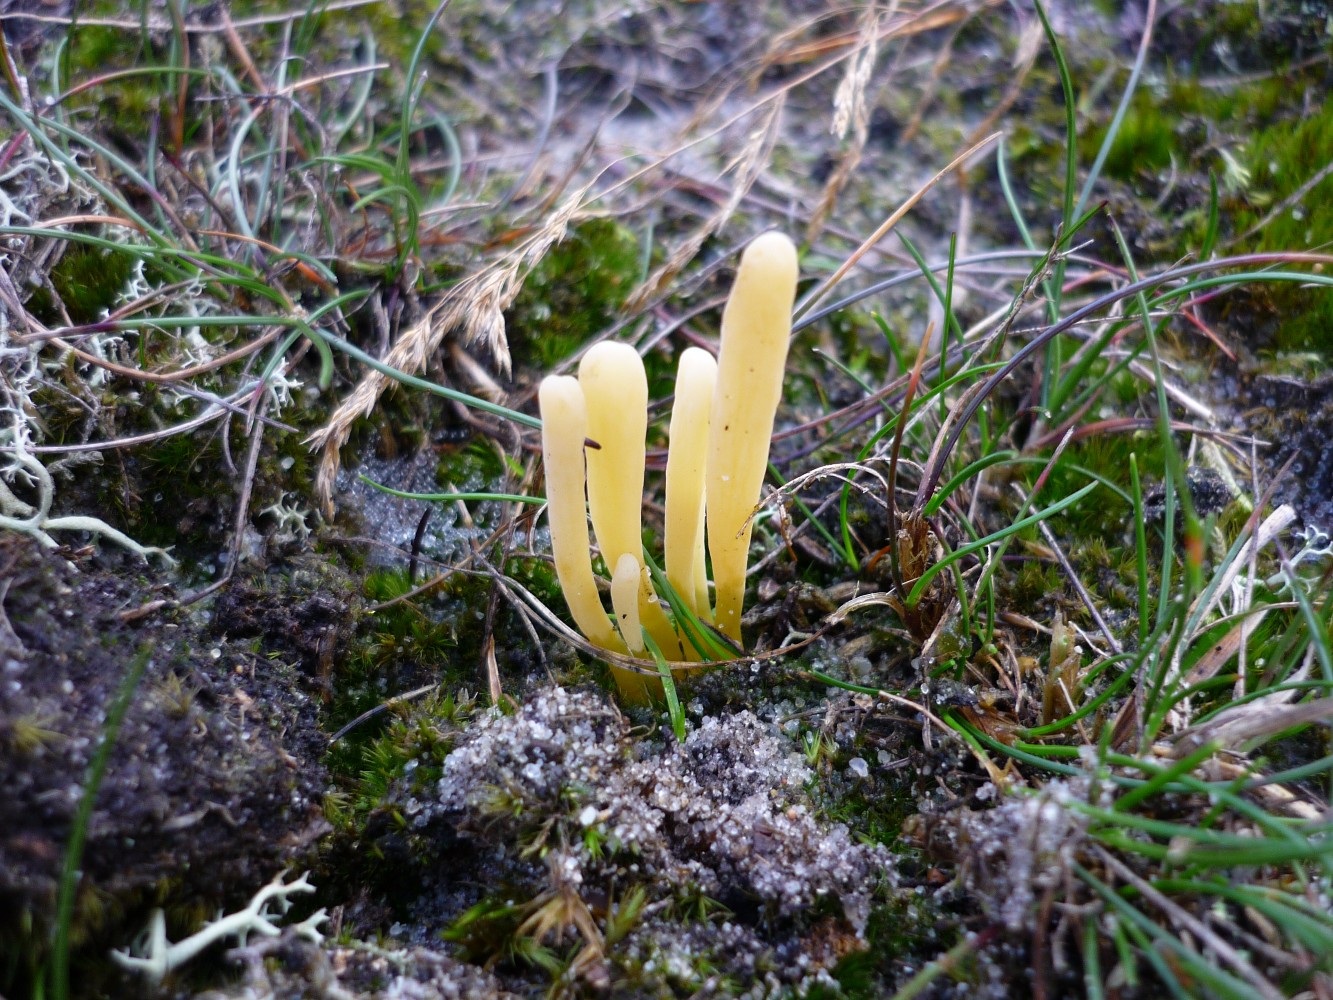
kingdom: Fungi
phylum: Basidiomycota
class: Agaricomycetes
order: Agaricales
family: Clavariaceae
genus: Clavaria
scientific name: Clavaria argillacea
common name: lerfarvet køllesvamp
